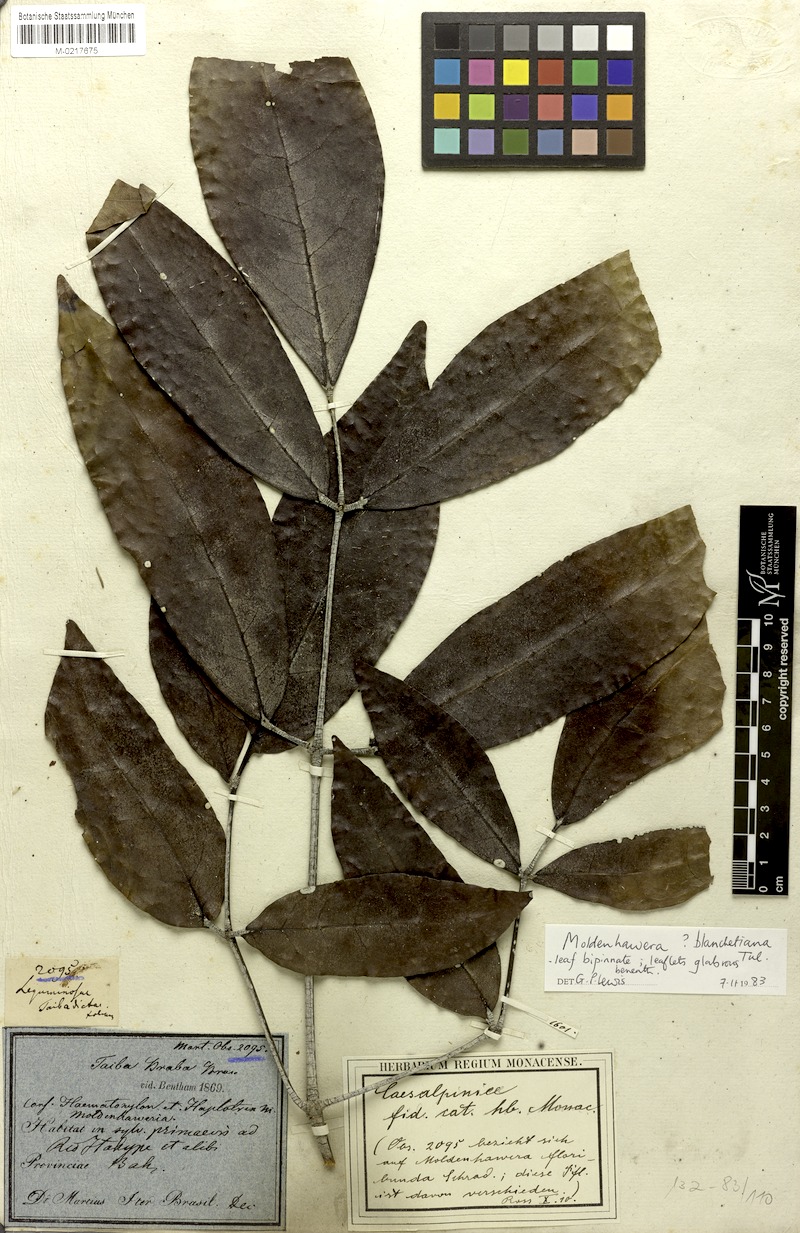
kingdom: Plantae
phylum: Tracheophyta
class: Magnoliopsida
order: Fabales
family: Fabaceae
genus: Moldenhawera
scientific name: Moldenhawera blanchetiana
